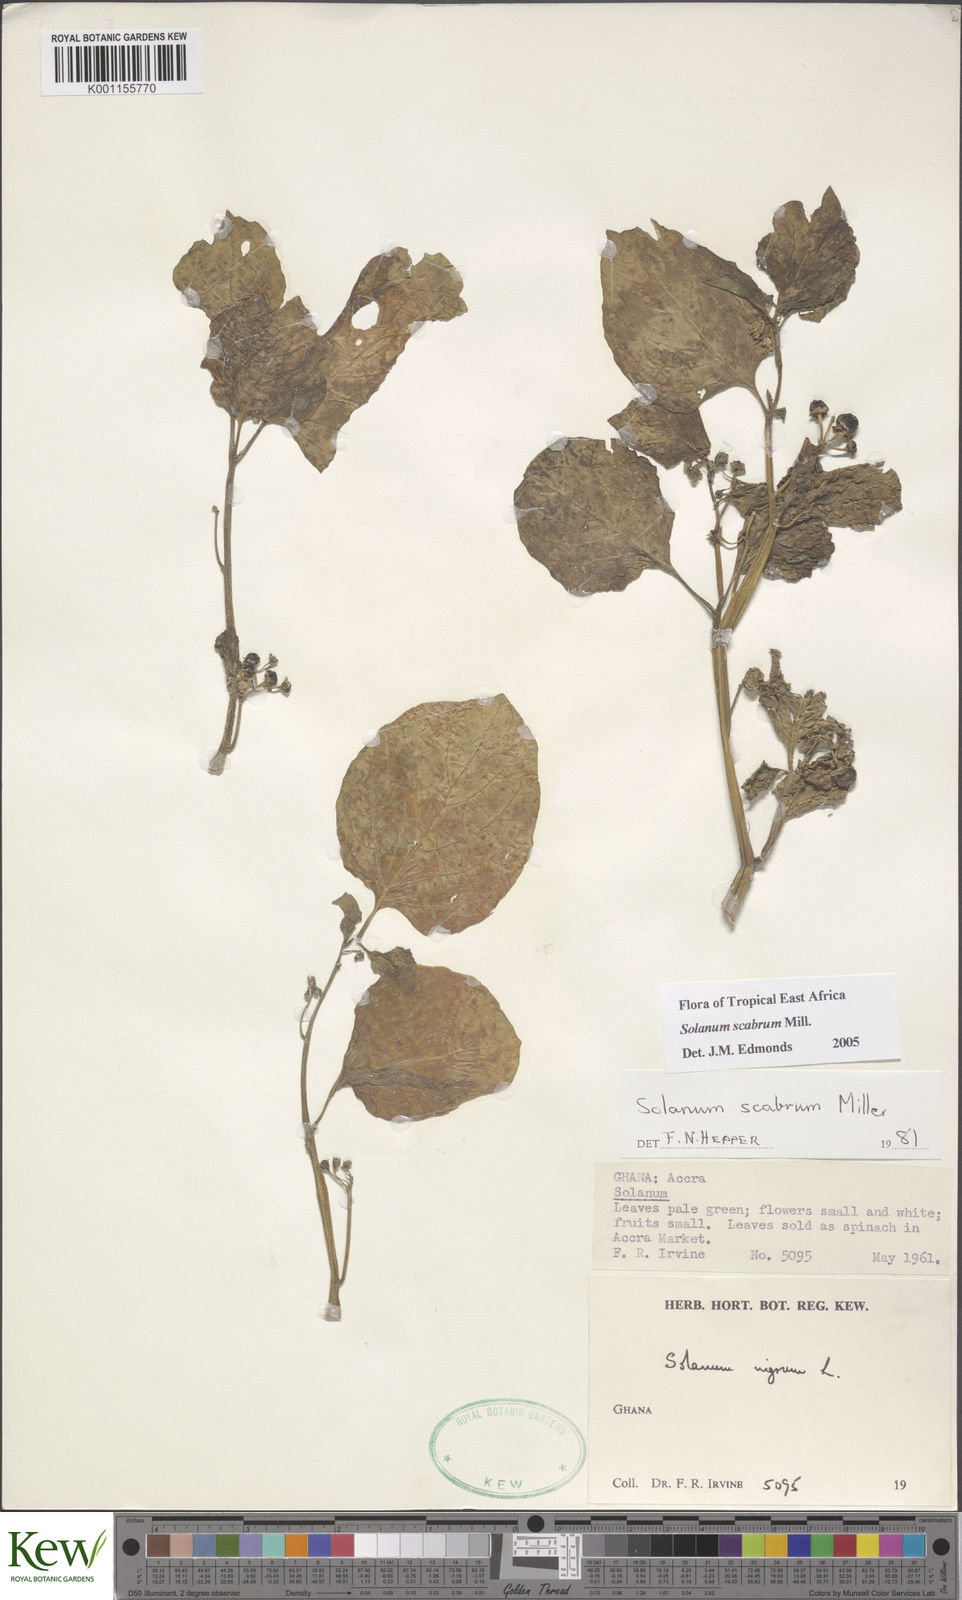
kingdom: Plantae
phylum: Tracheophyta
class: Magnoliopsida
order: Solanales
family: Solanaceae
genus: Solanum
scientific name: Solanum scabrum
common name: Garden-huckleberry
